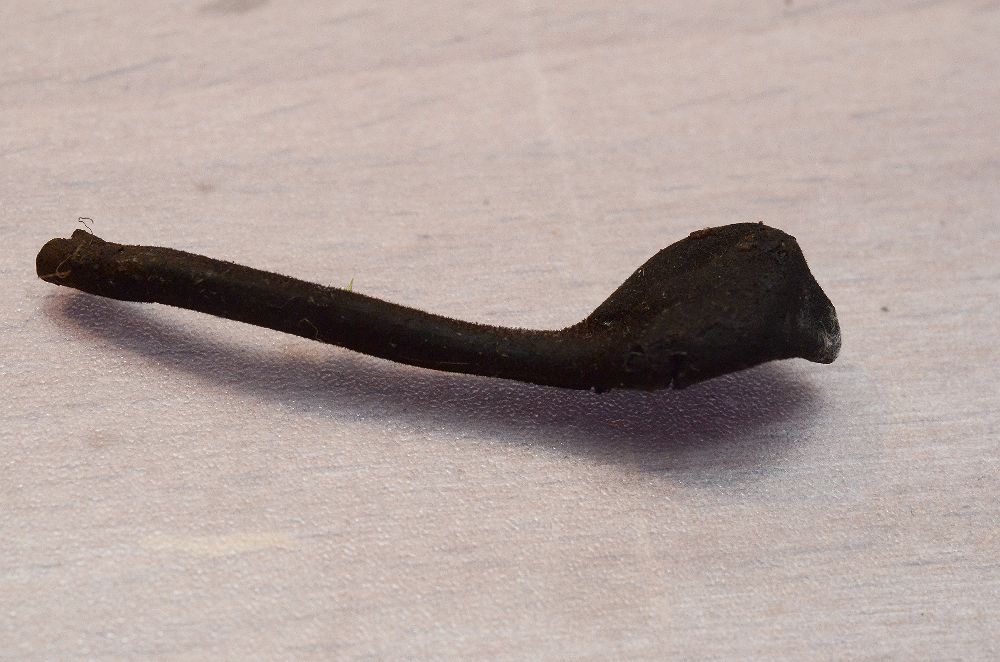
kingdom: Fungi
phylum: Ascomycota
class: Geoglossomycetes
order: Geoglossales
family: Geoglossaceae
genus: Trichoglossum
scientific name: Trichoglossum hirsutum
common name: håret jordtunge
